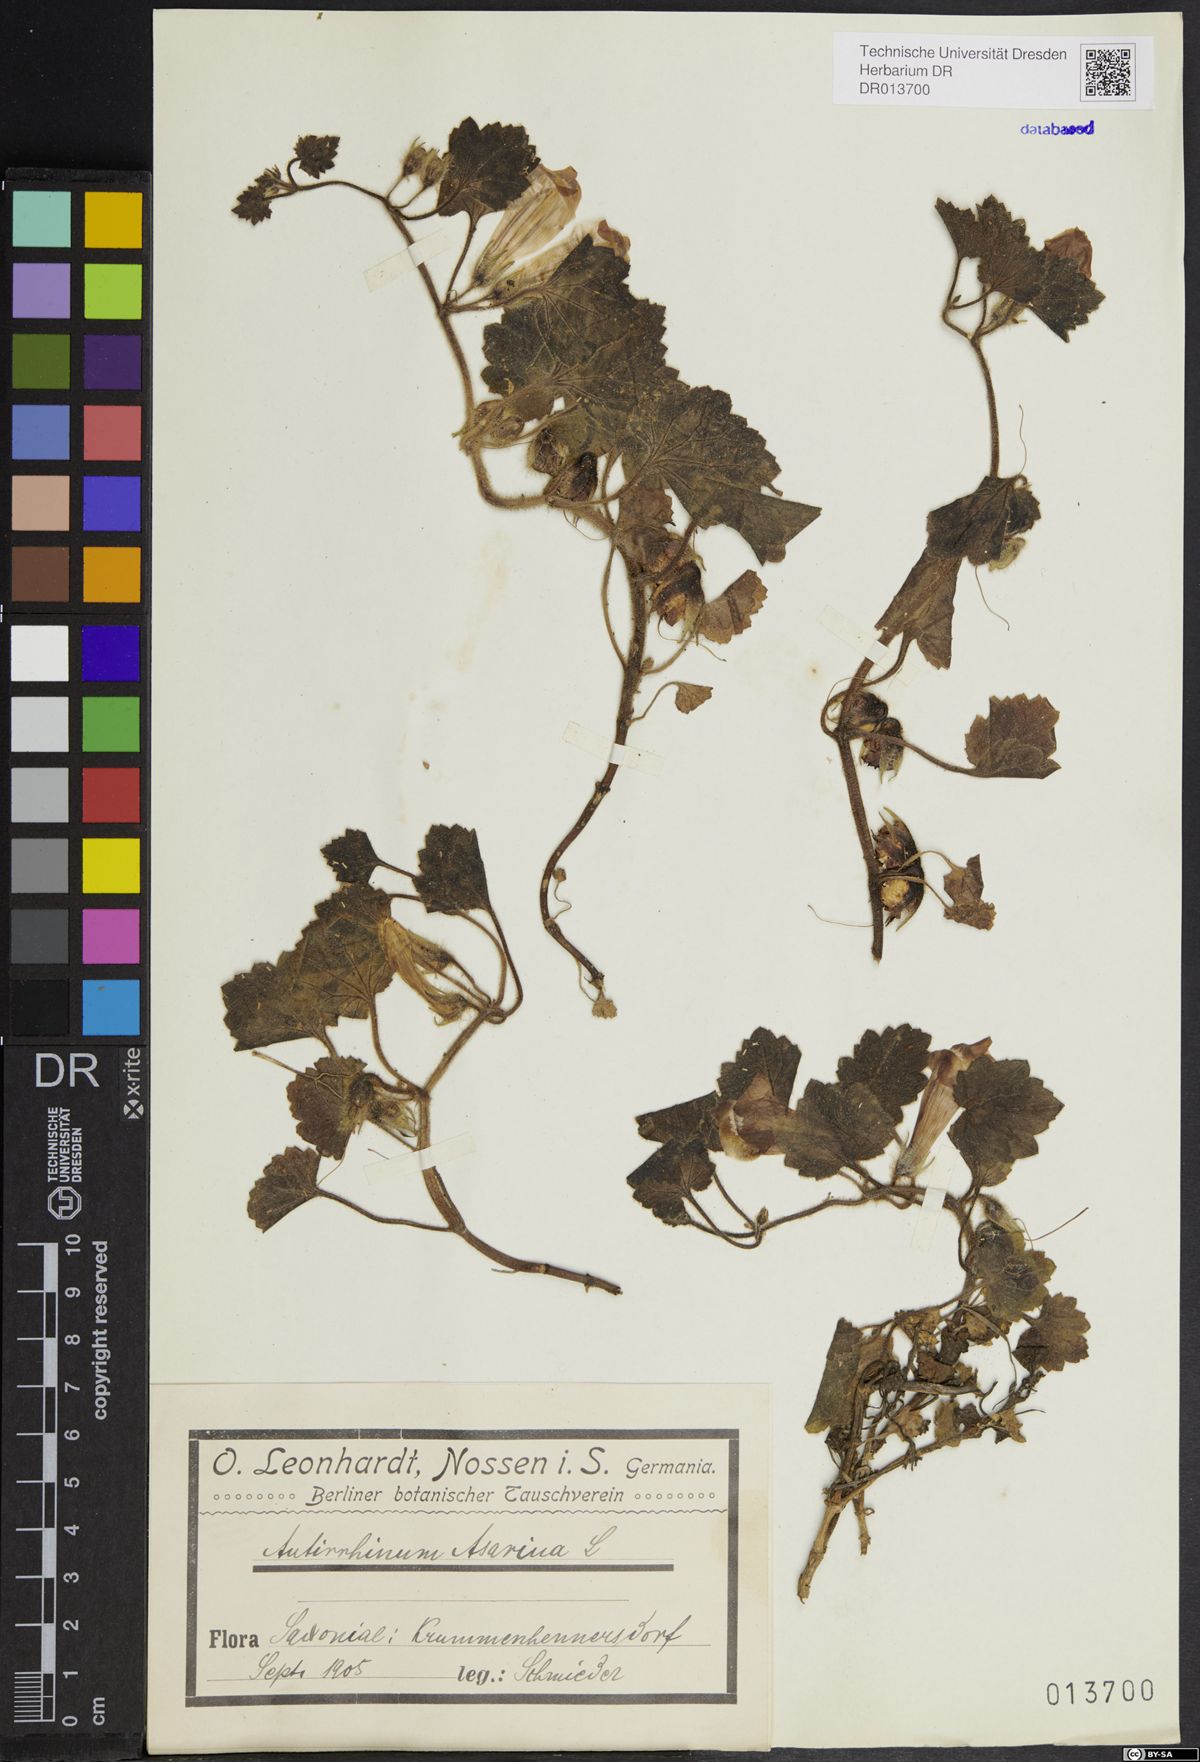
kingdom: Plantae
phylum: Tracheophyta
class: Magnoliopsida
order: Lamiales
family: Plantaginaceae
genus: Asarina
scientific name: Asarina procumbens
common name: Trailing snapdragon
